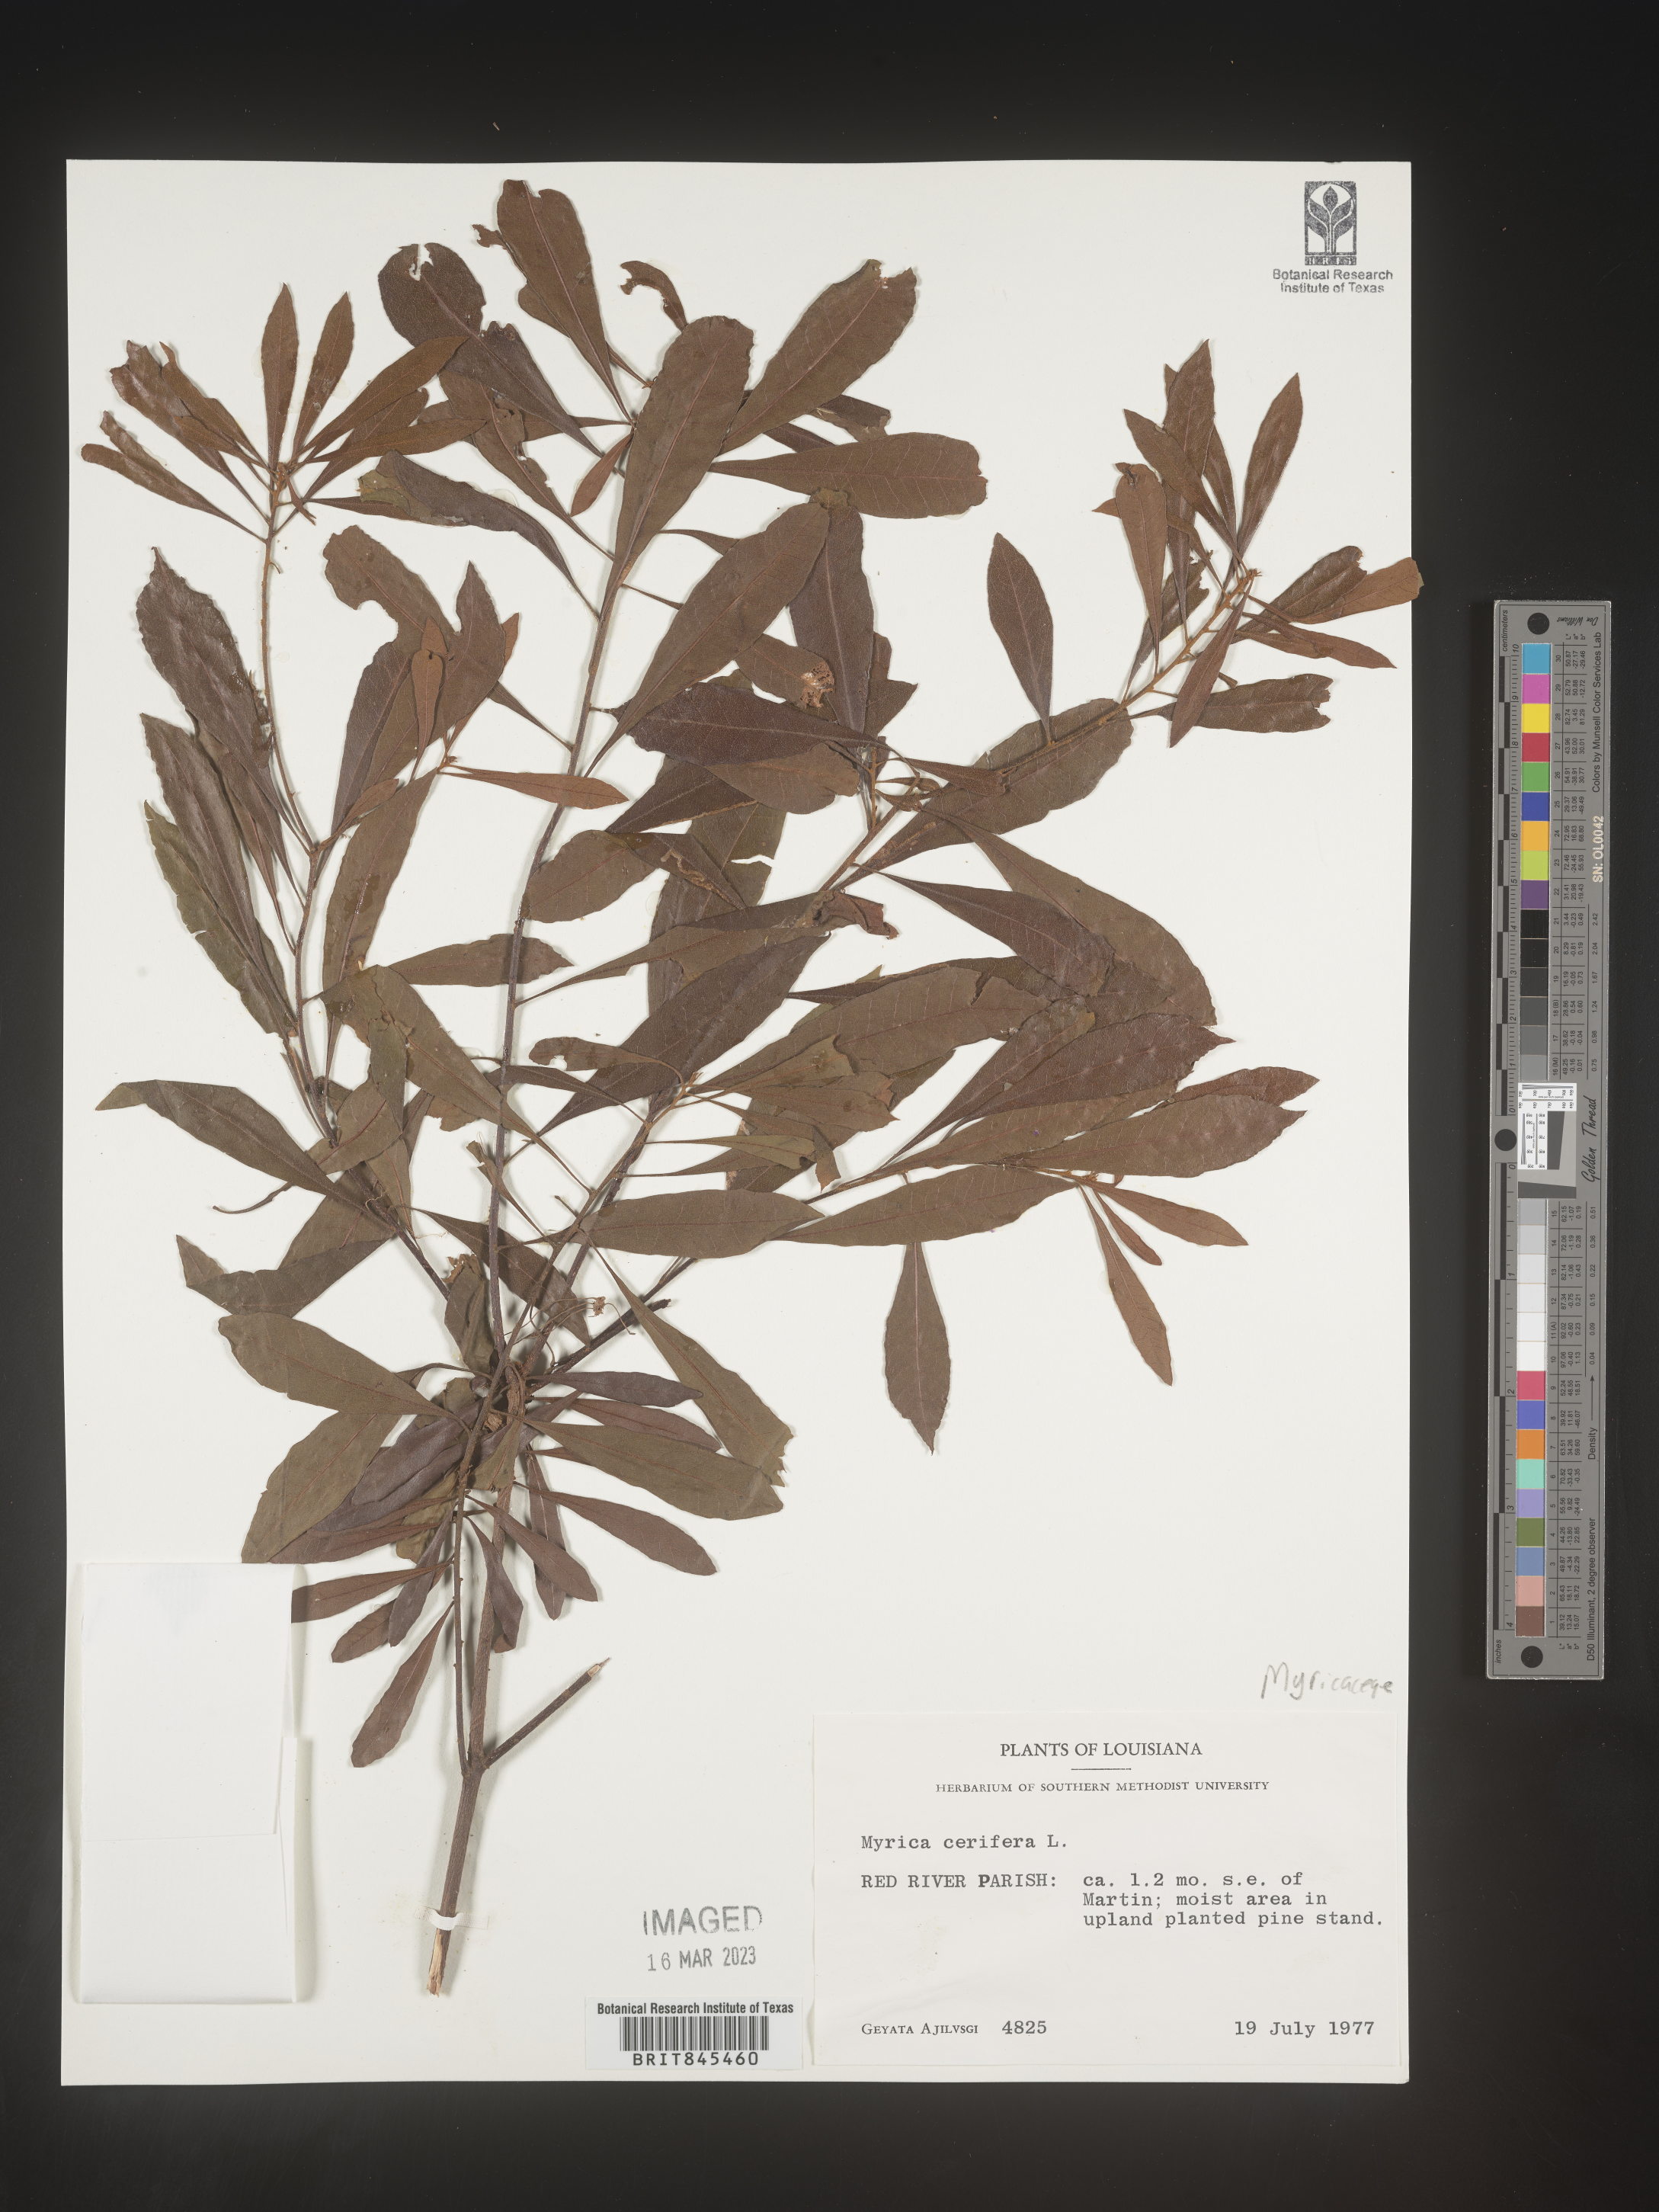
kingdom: Plantae
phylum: Tracheophyta
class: Magnoliopsida
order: Fagales
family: Myricaceae
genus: Morella
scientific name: Morella cerifera
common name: Wax myrtle
